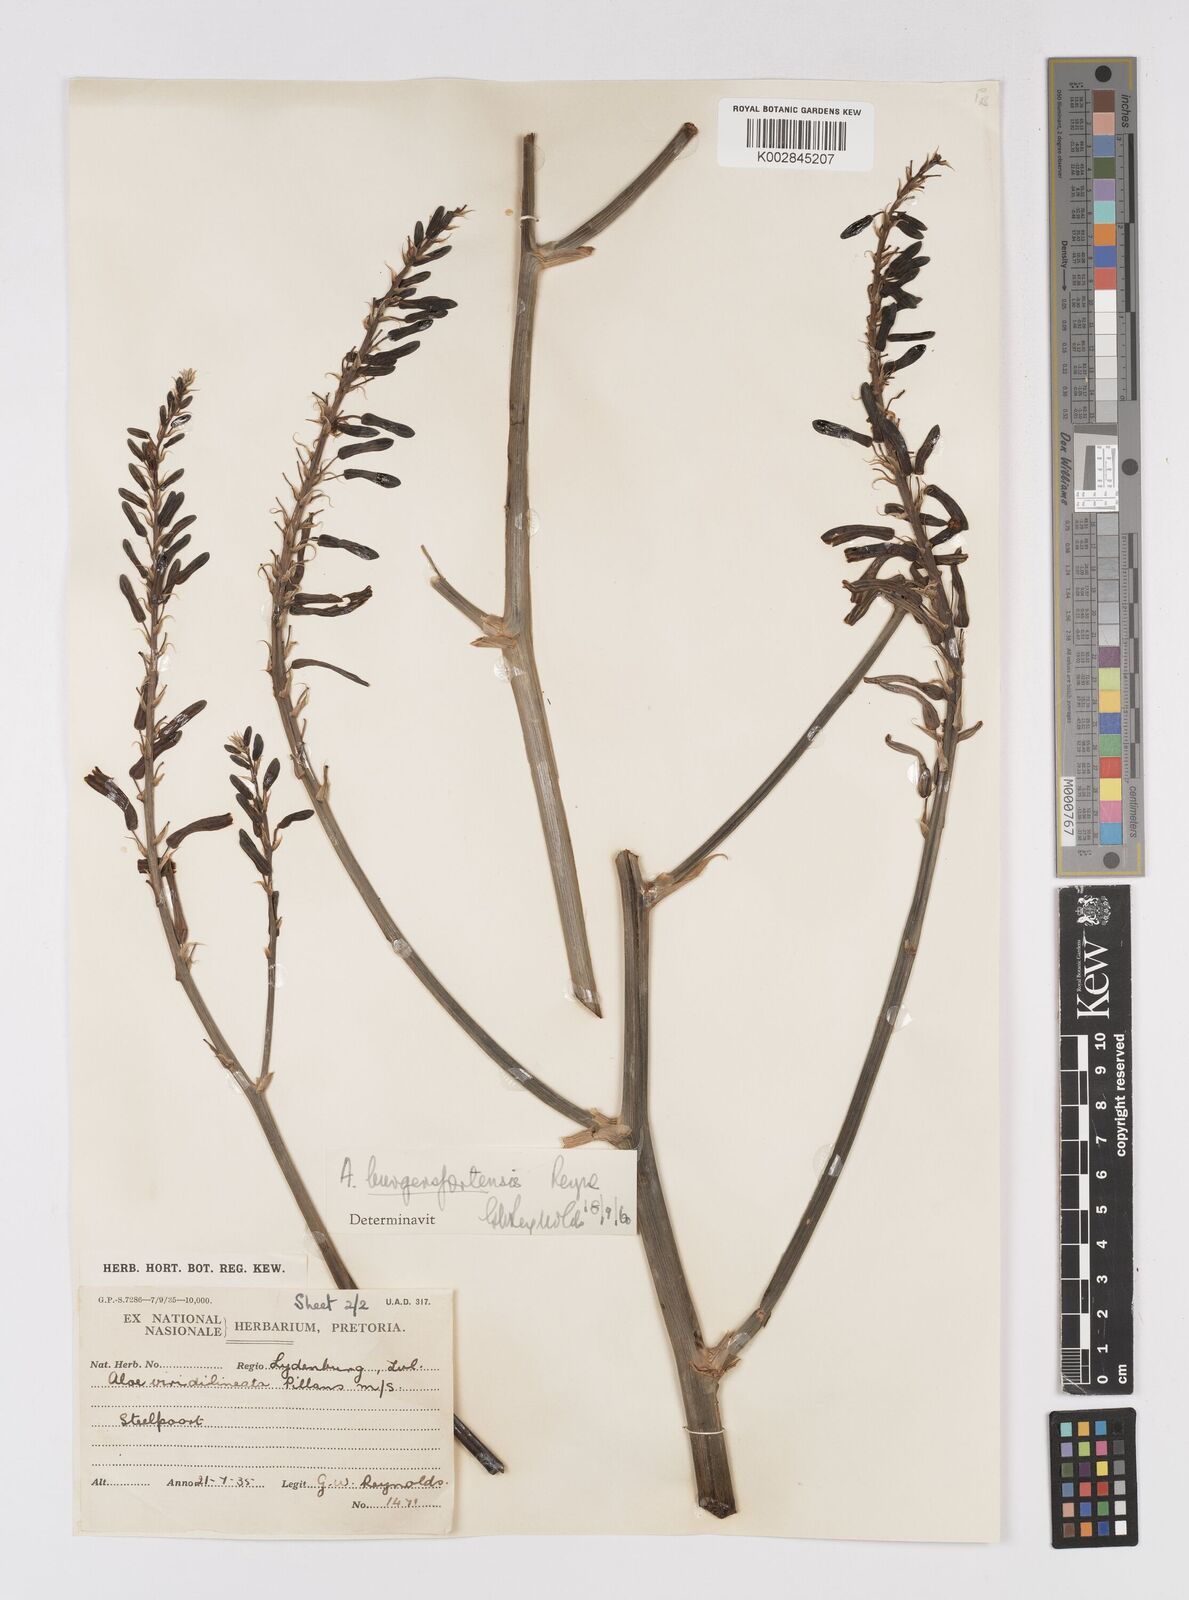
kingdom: Plantae
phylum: Tracheophyta
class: Liliopsida
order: Asparagales
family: Asphodelaceae
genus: Aloe
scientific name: Aloe burgersfortensis
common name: Burgersfort aloe
